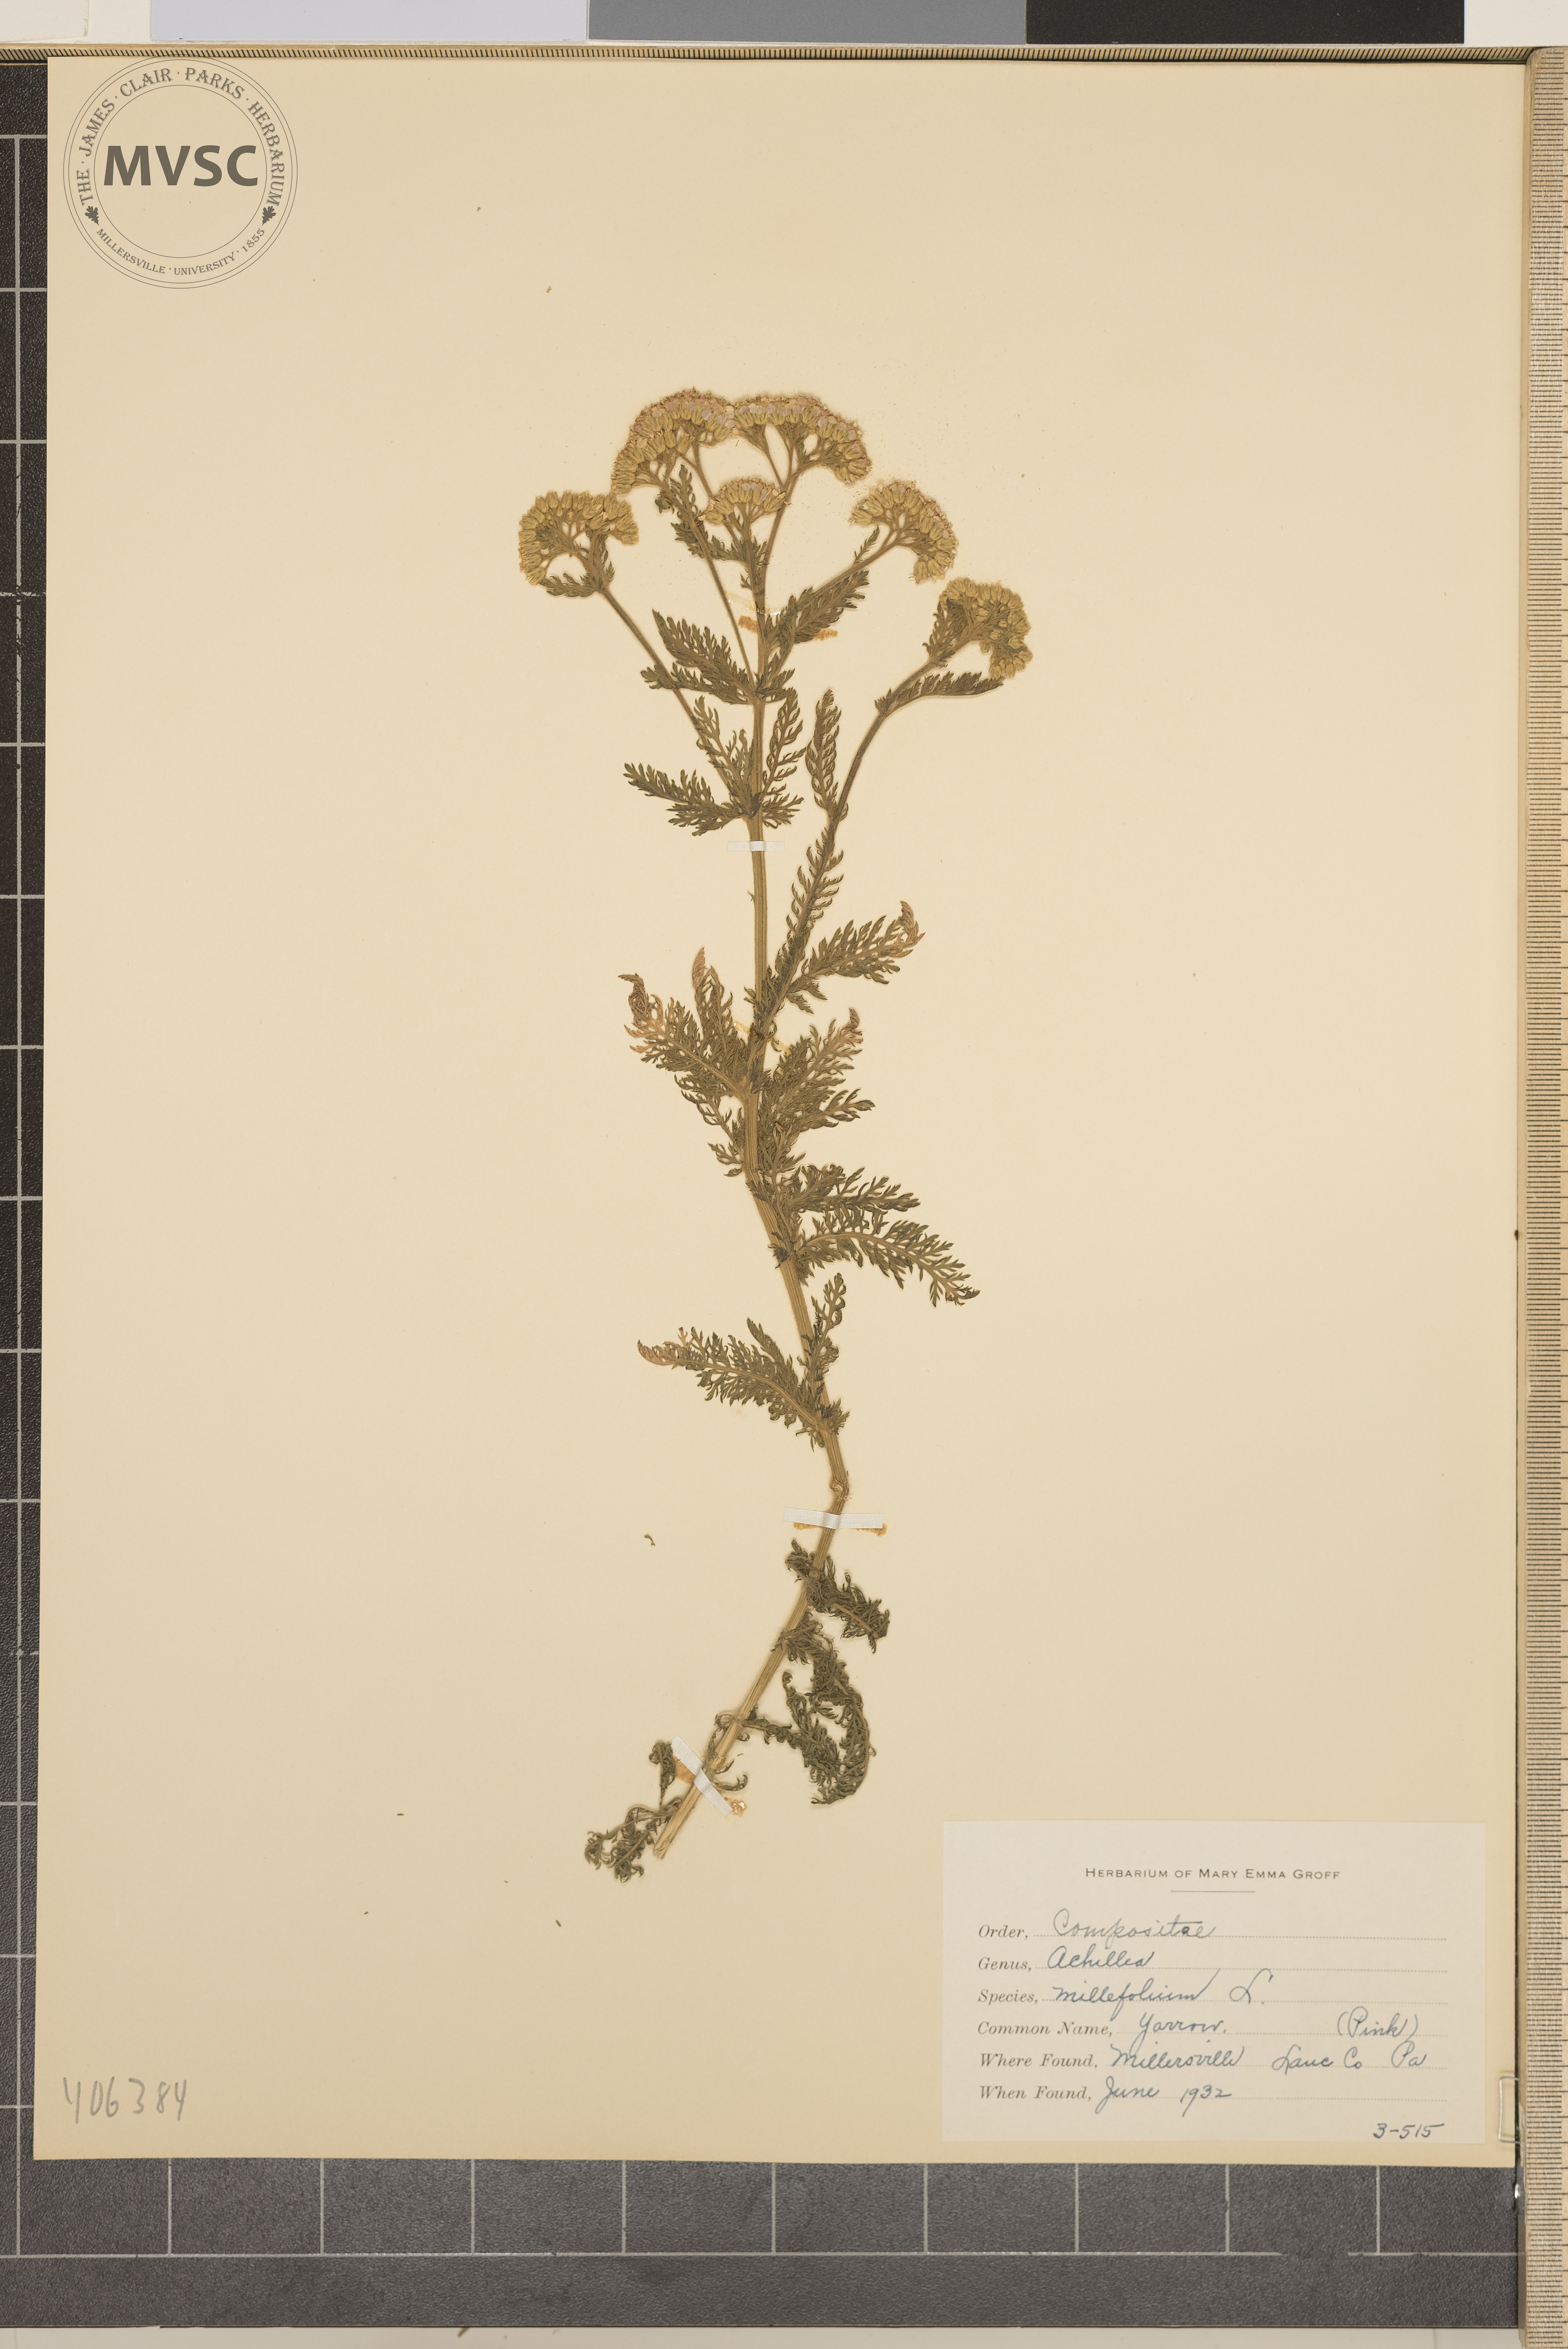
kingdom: Plantae
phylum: Tracheophyta
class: Magnoliopsida
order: Asterales
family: Asteraceae
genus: Achillea
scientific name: Achillea millefolium
